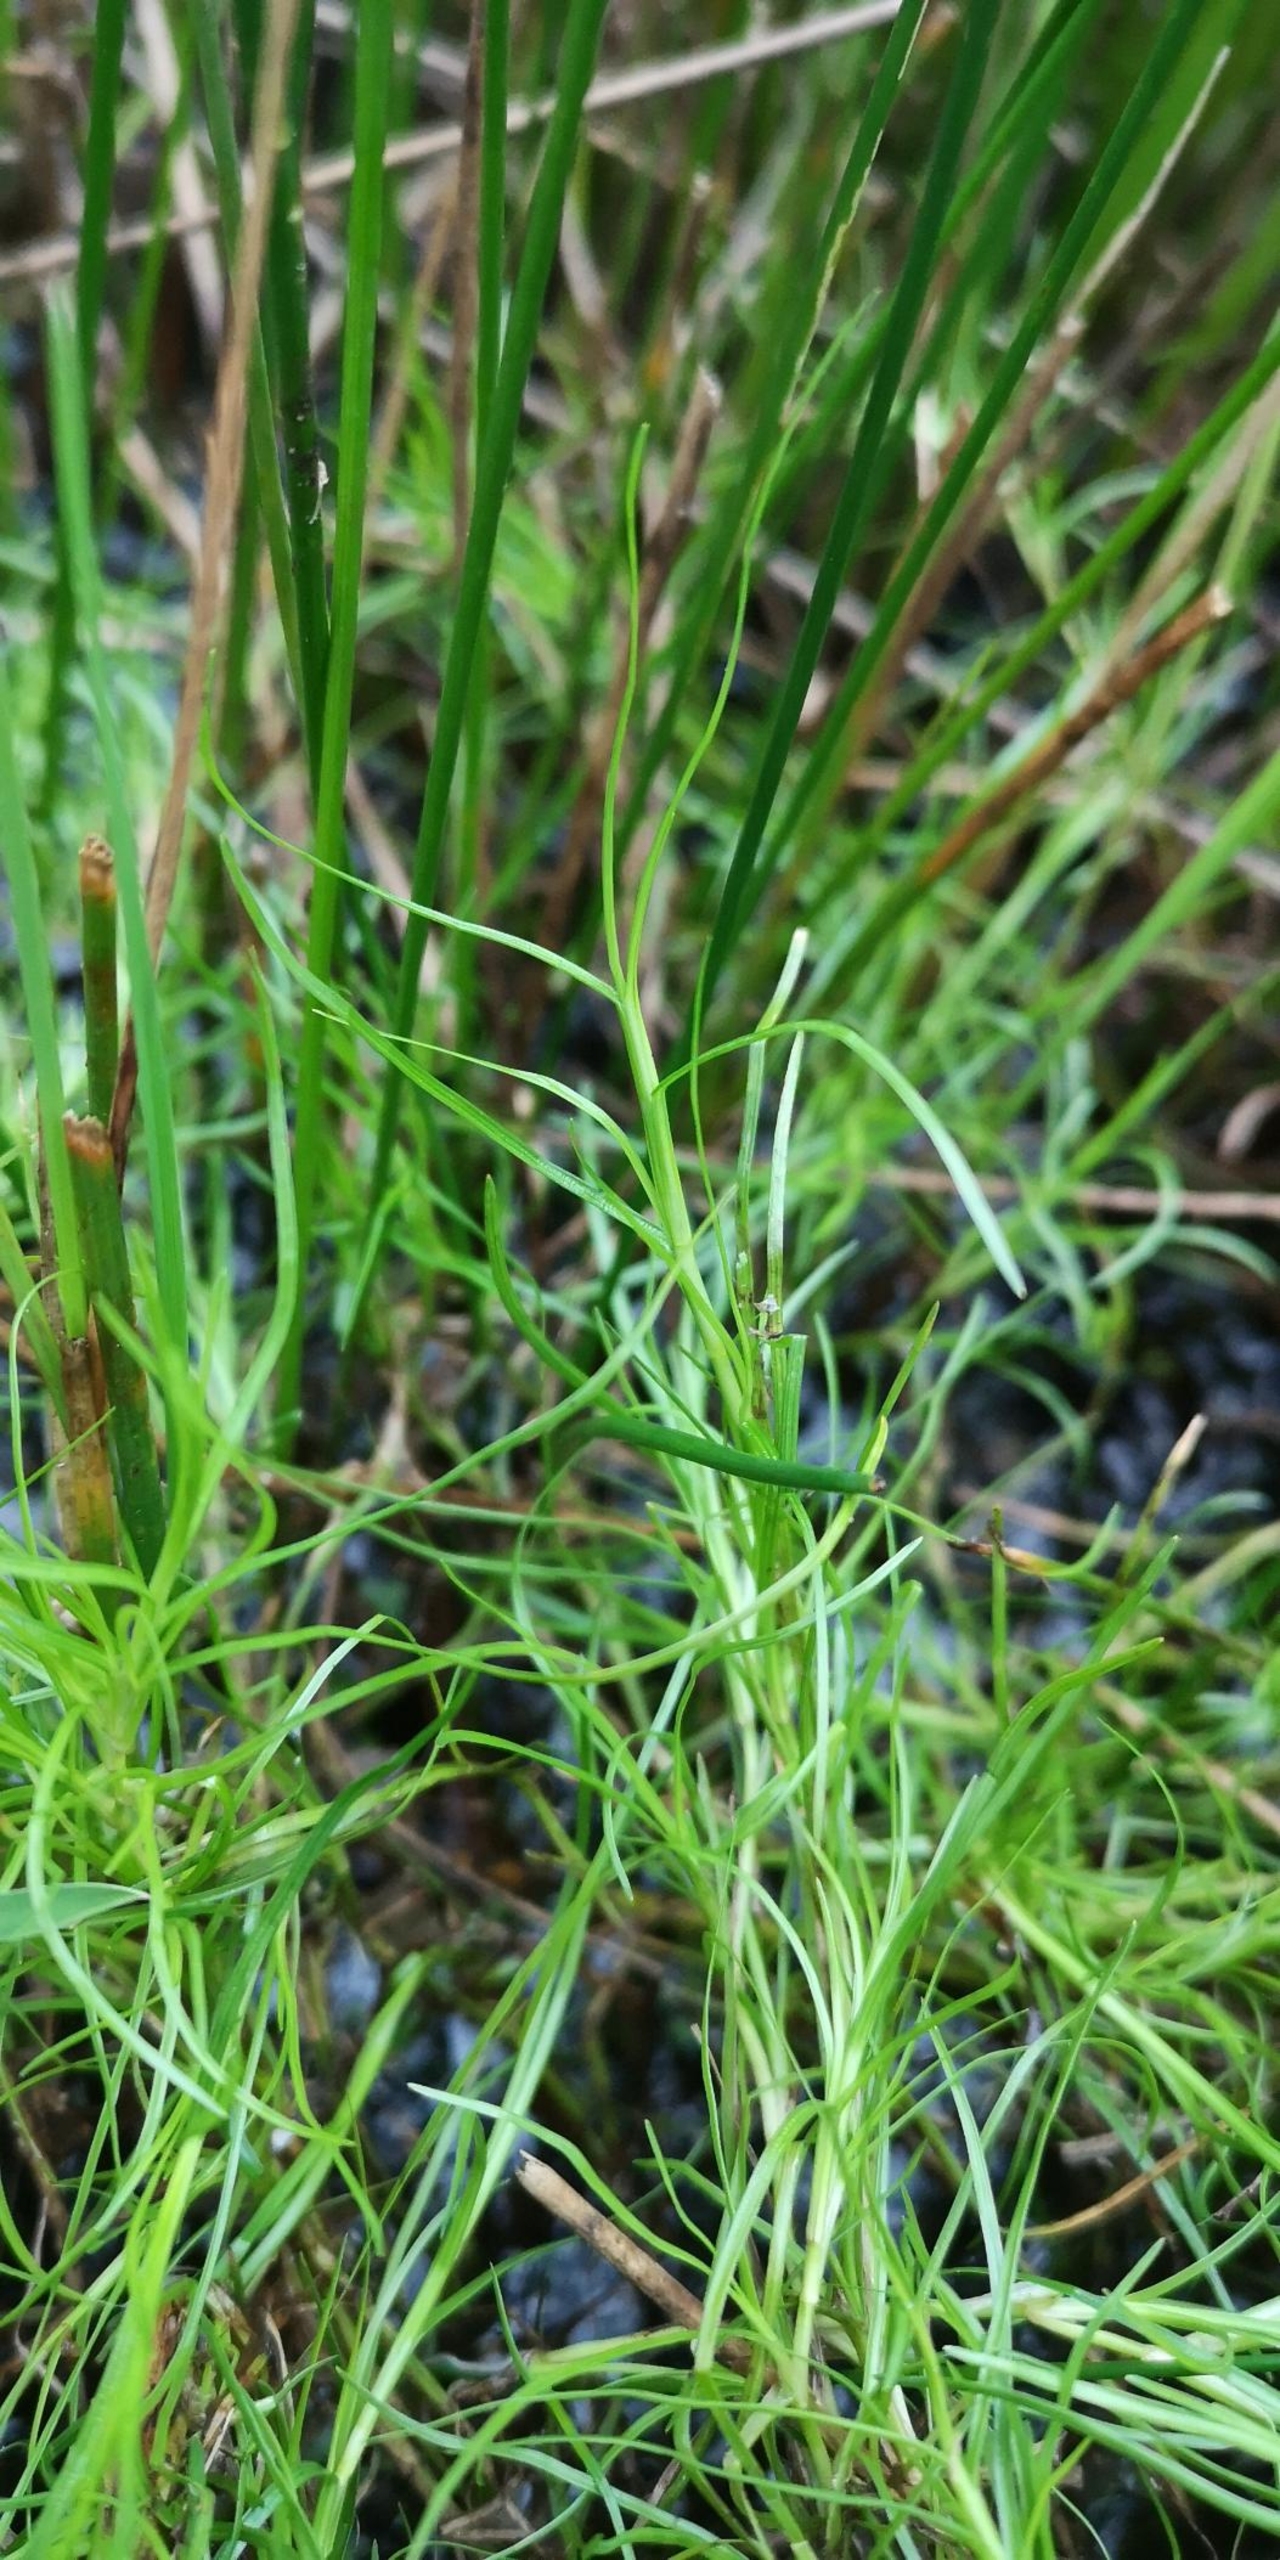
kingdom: Plantae
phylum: Tracheophyta
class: Liliopsida
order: Poales
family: Cyperaceae
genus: Isolepis
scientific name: Isolepis fluitans
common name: Flydende kogleaks
